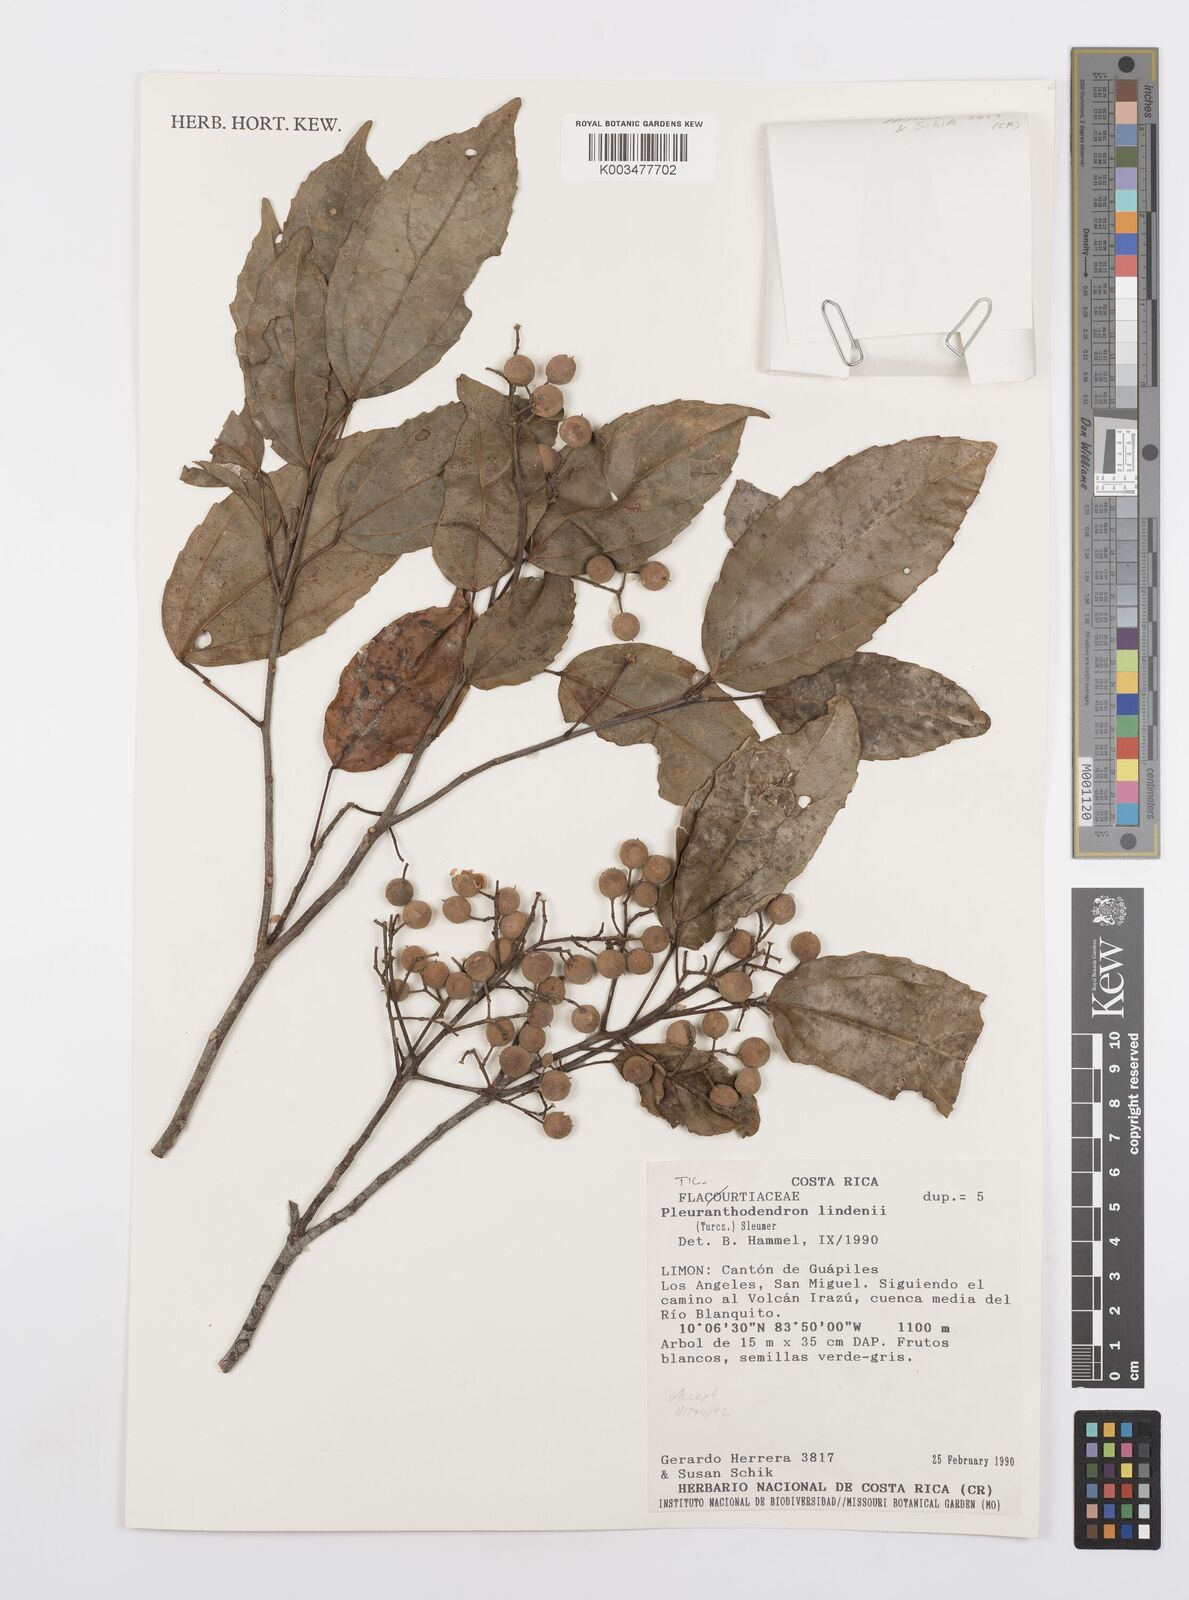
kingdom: Plantae
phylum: Tracheophyta
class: Magnoliopsida
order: Malpighiales
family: Salicaceae
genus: Pleuranthodendron
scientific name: Pleuranthodendron lindenii
